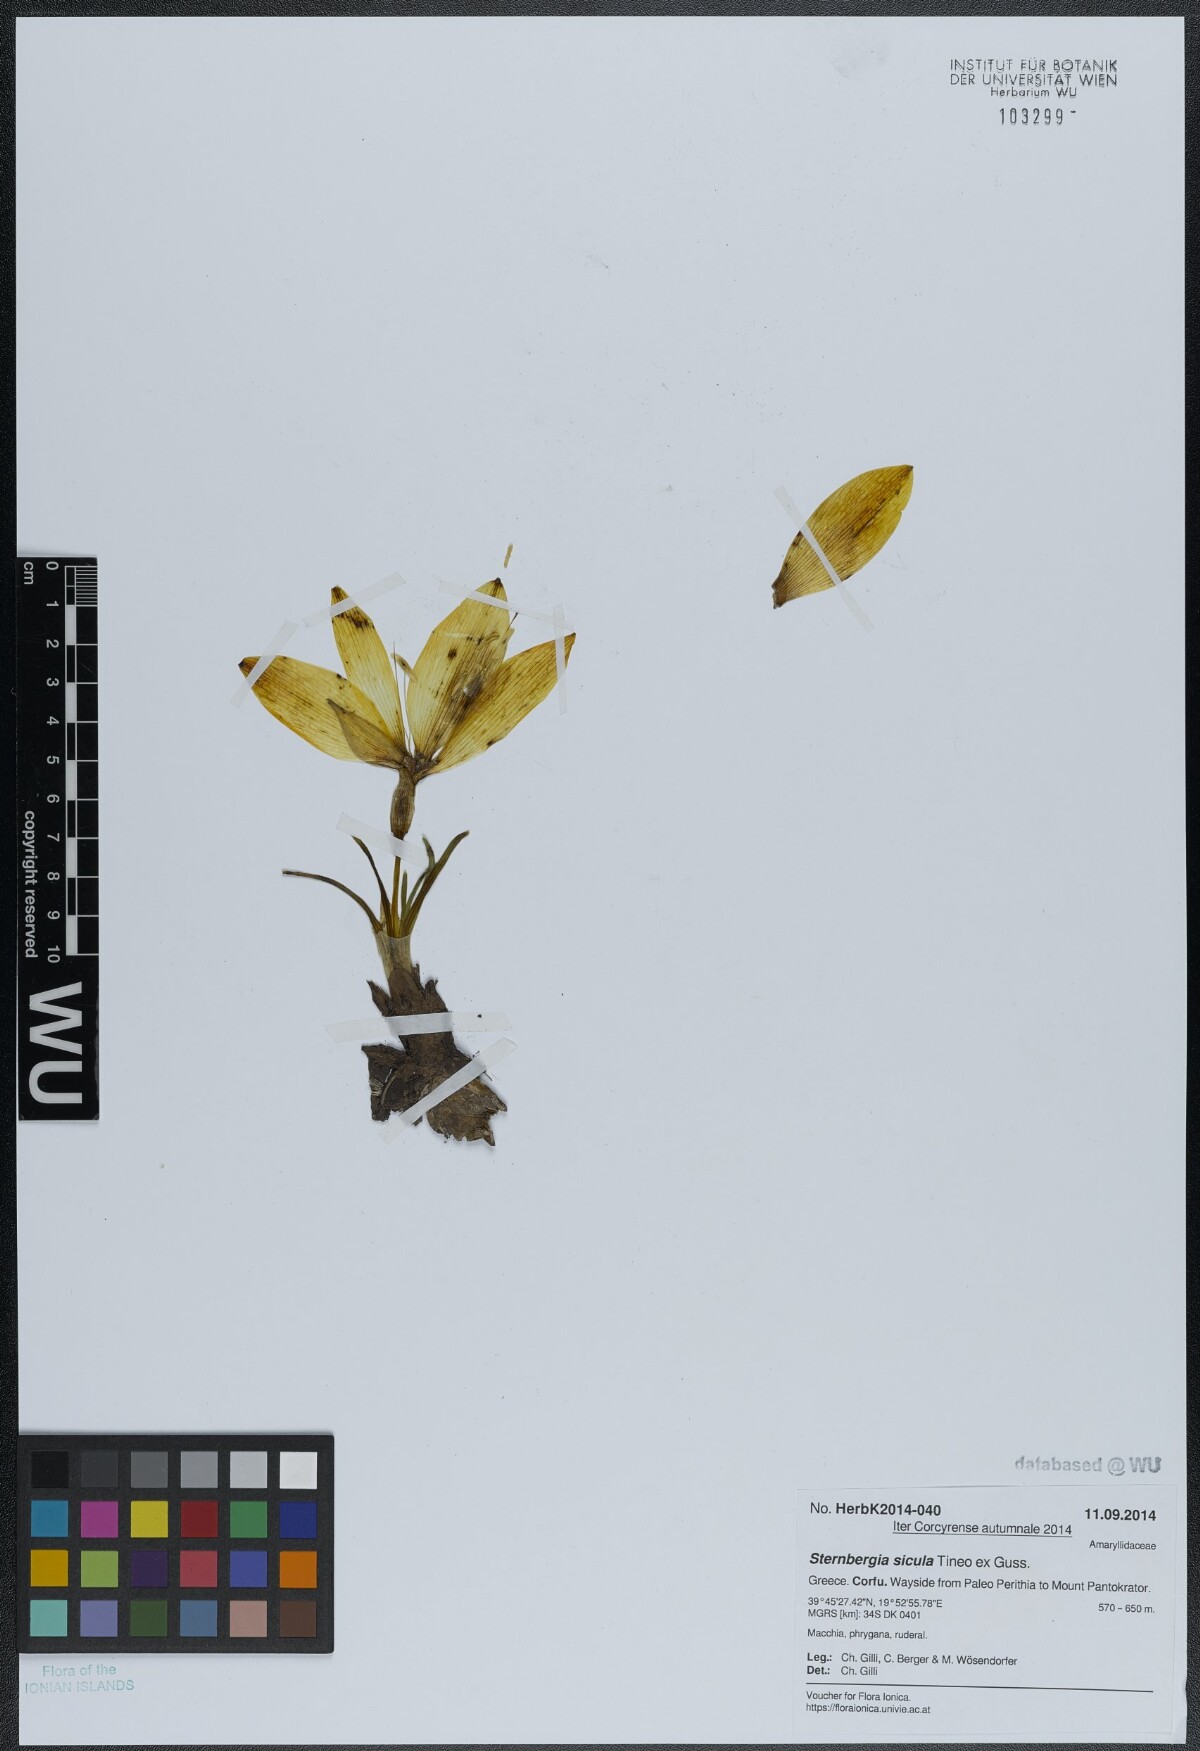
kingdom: Plantae
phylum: Tracheophyta
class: Liliopsida
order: Asparagales
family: Amaryllidaceae
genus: Sternbergia
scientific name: Sternbergia lutea
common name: Winter daffodil
